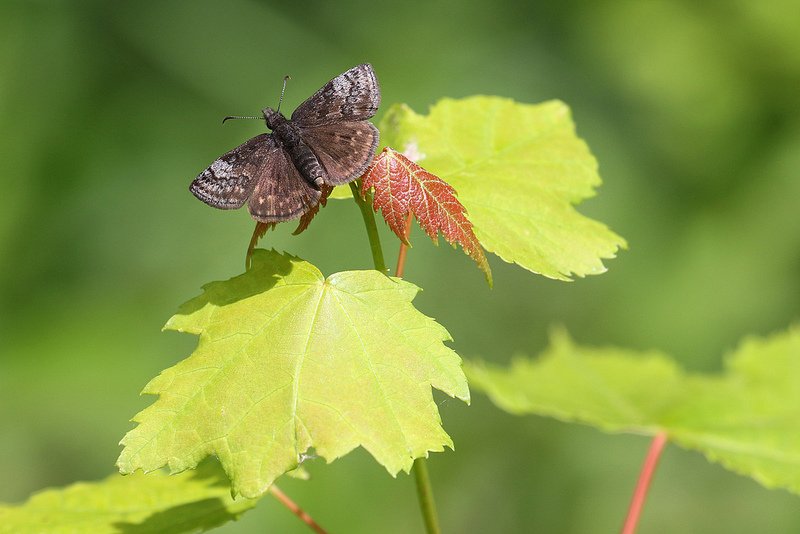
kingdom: Animalia
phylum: Arthropoda
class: Insecta
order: Lepidoptera
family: Hesperiidae
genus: Erynnis
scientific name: Erynnis icelus
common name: Dreamy Duskywing
